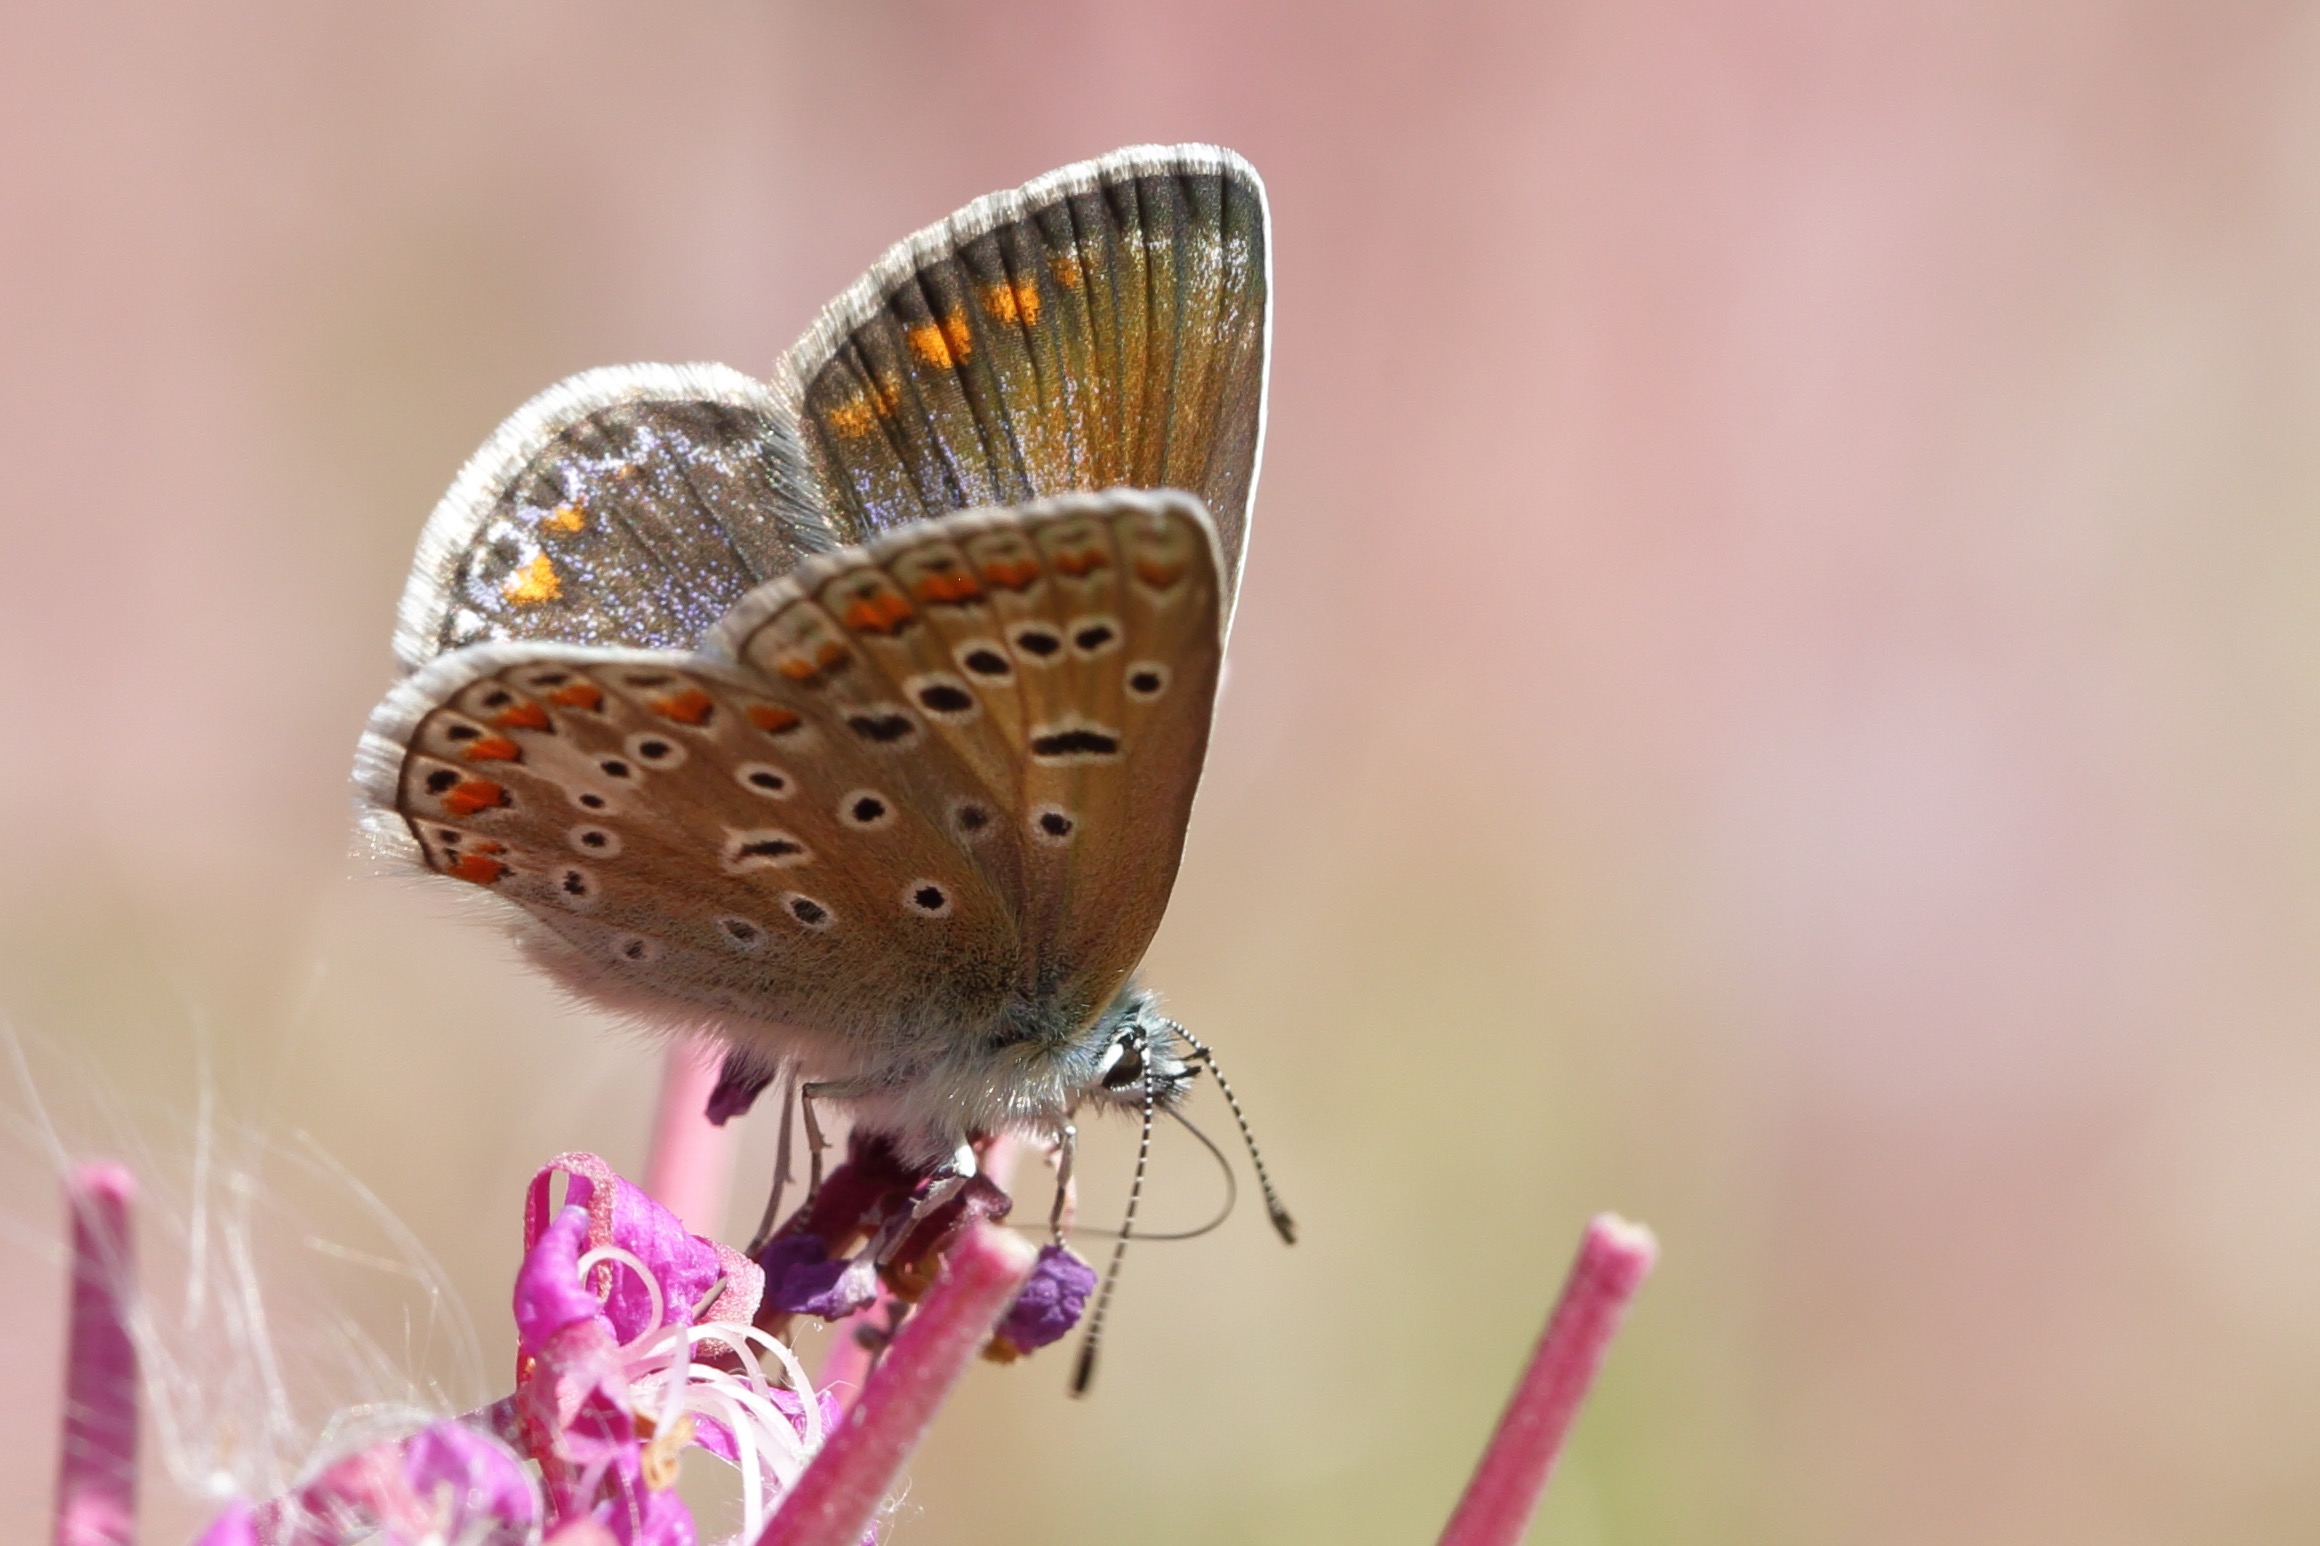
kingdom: Animalia
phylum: Arthropoda
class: Insecta
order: Lepidoptera
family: Lycaenidae
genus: Polyommatus
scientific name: Polyommatus icarus
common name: Almindelig blåfugl
